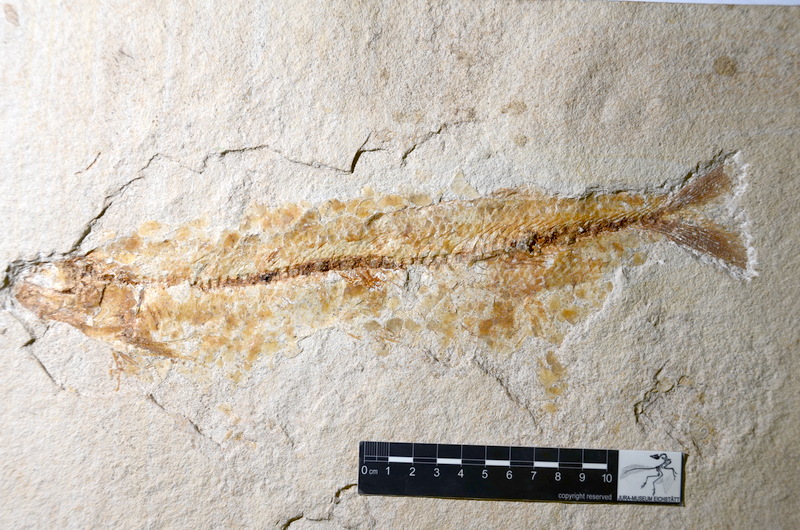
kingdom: Animalia
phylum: Chordata
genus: Thrissops
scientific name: Thrissops
